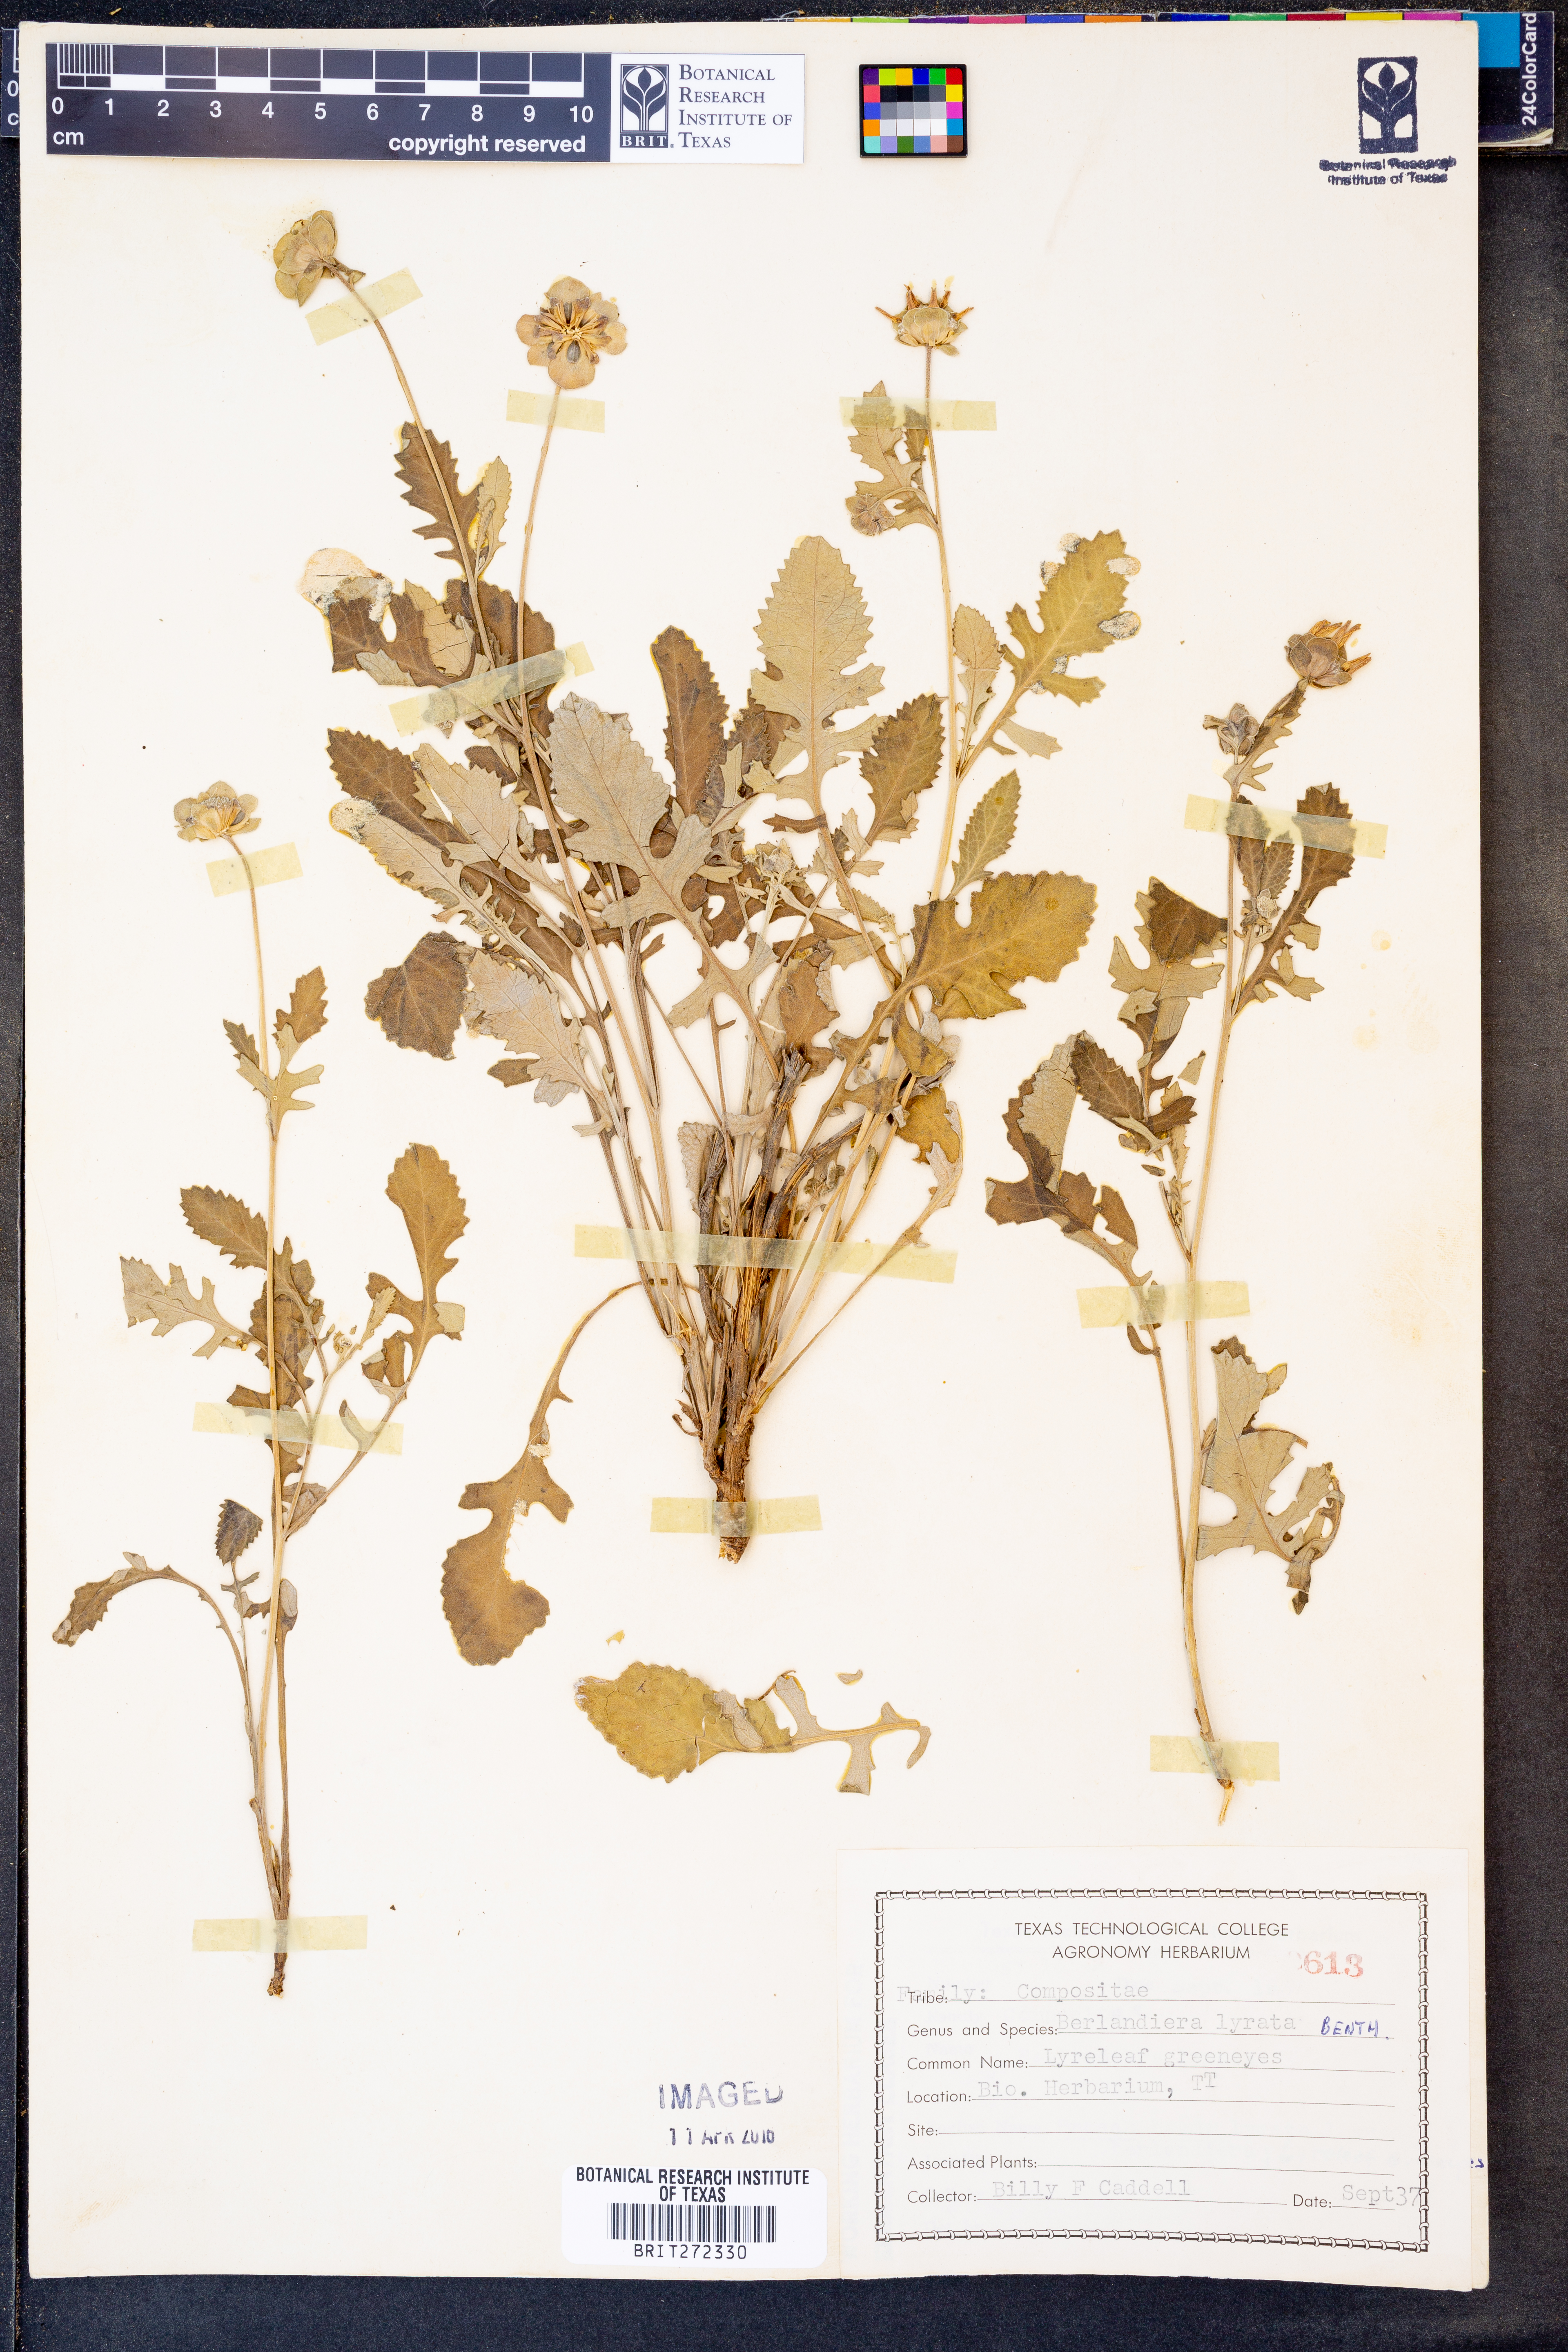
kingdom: Plantae
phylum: Tracheophyta
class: Magnoliopsida
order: Asterales
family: Asteraceae
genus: Berlandiera
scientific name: Berlandiera lyrata
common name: Chocolate-flower
